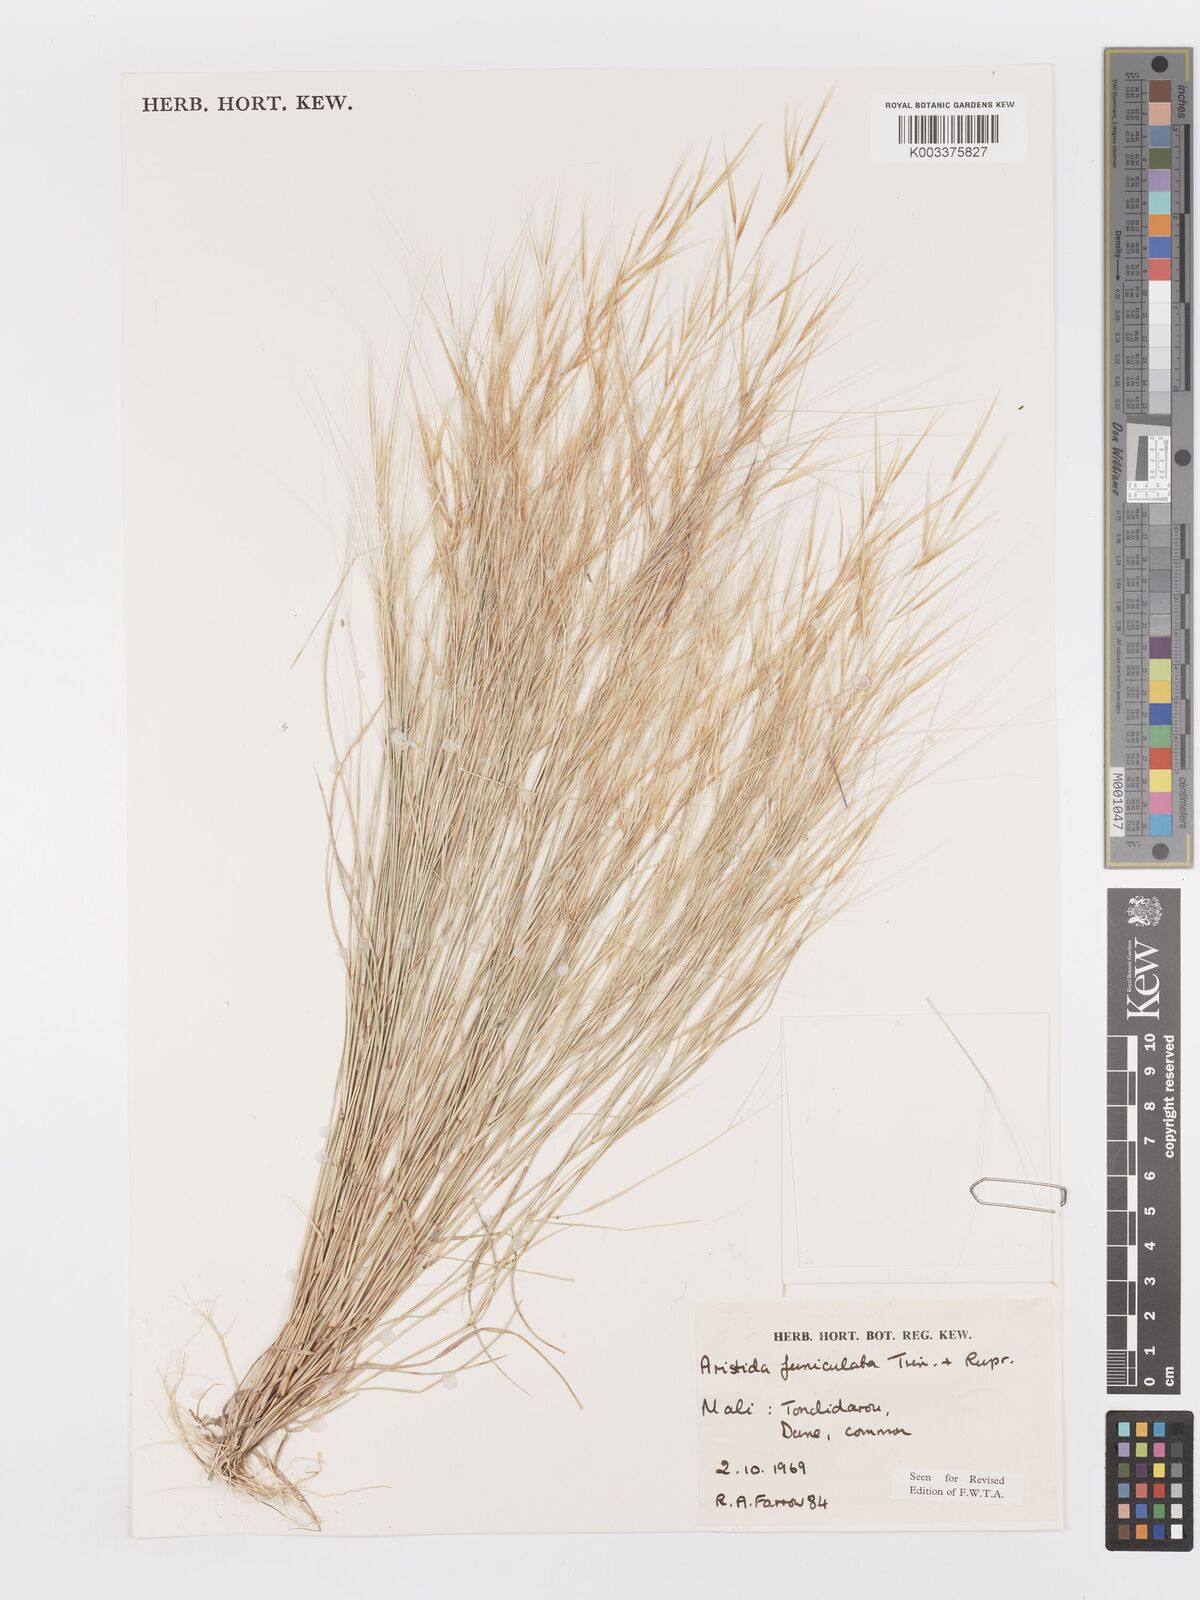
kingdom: Plantae
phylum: Tracheophyta
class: Liliopsida
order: Poales
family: Poaceae
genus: Aristida
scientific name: Aristida funiculata
